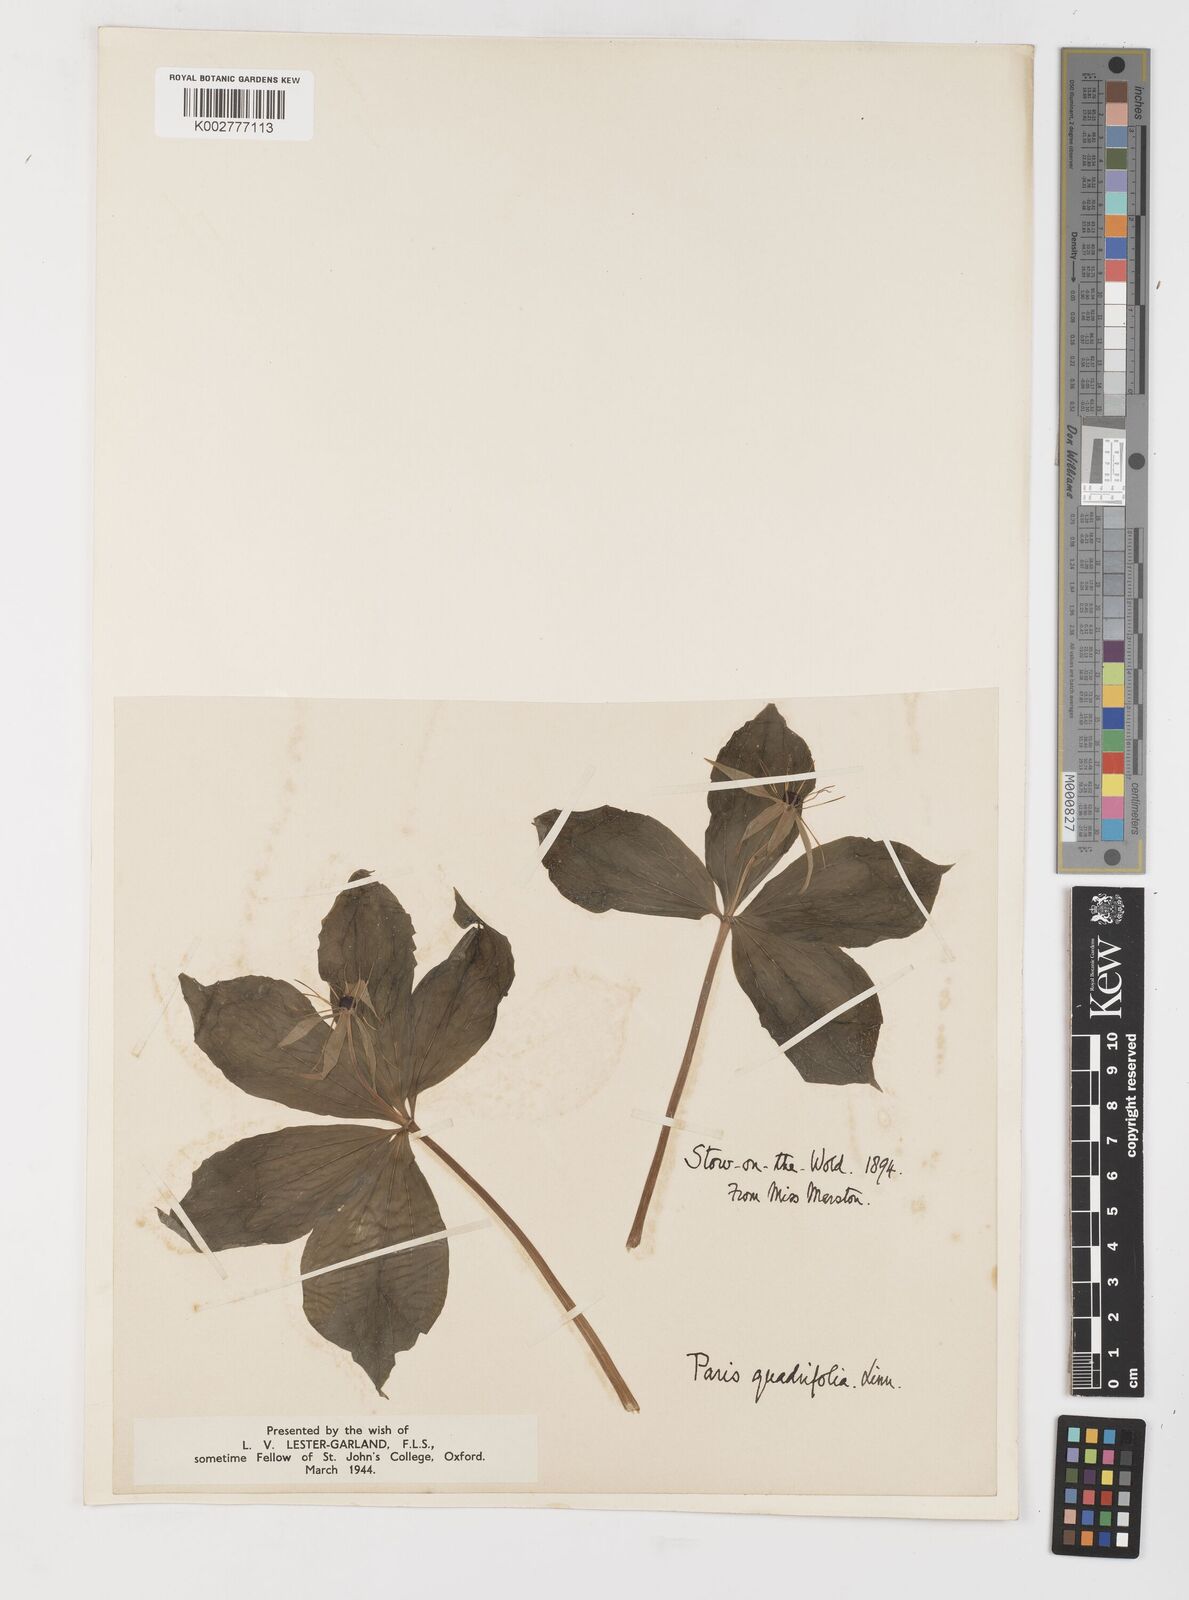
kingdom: Plantae
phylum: Tracheophyta
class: Liliopsida
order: Liliales
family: Melanthiaceae
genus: Paris
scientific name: Paris quadrifolia
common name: Herb-paris
